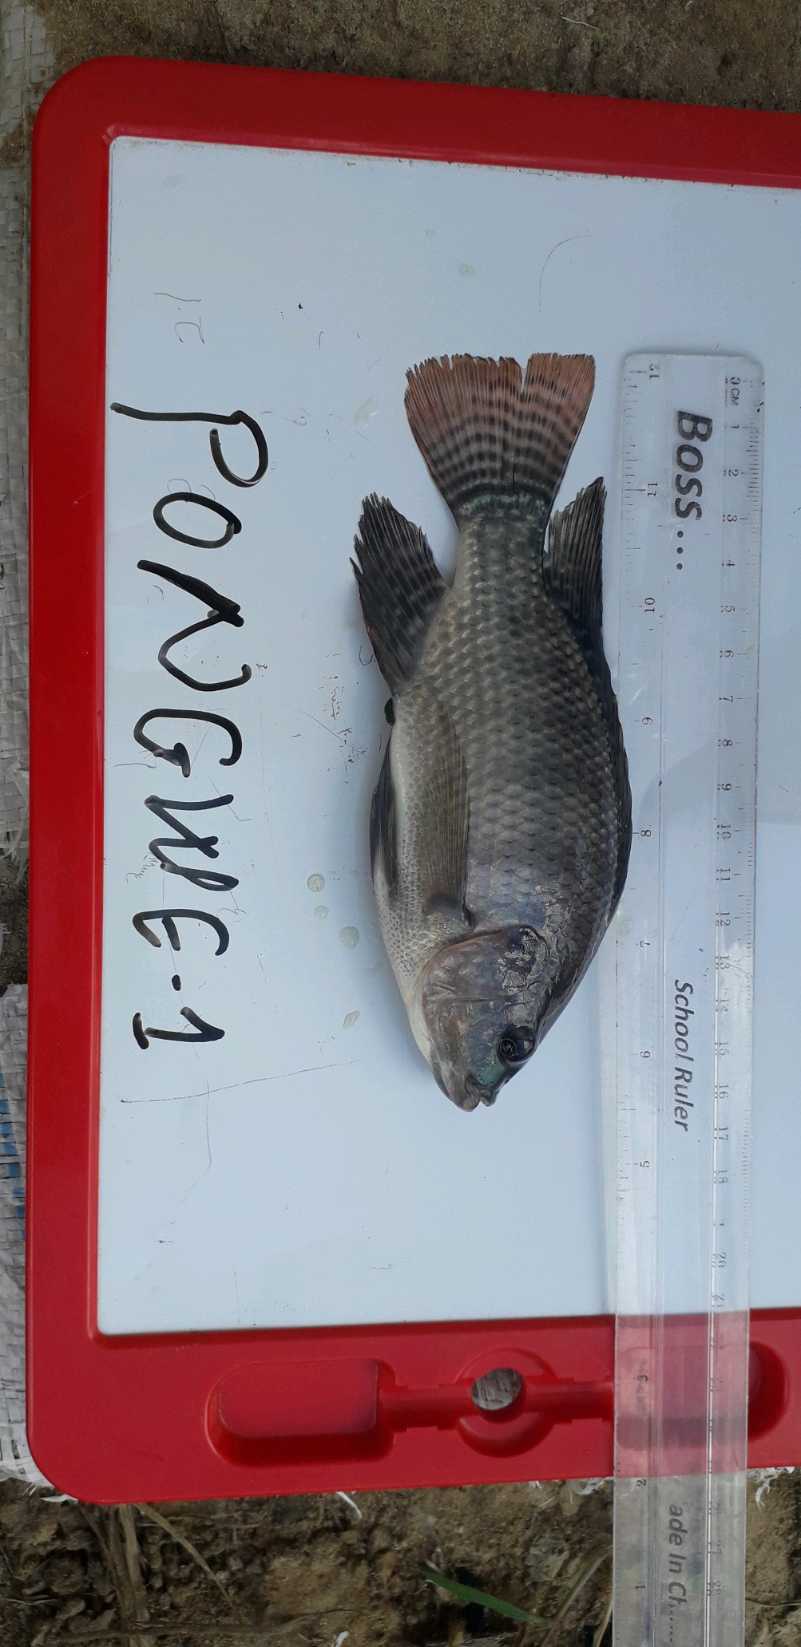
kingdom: Animalia
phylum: Chordata
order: Perciformes
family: Cichlidae
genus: Oreochromis
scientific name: Oreochromis niloticus
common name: Nile tilapia
